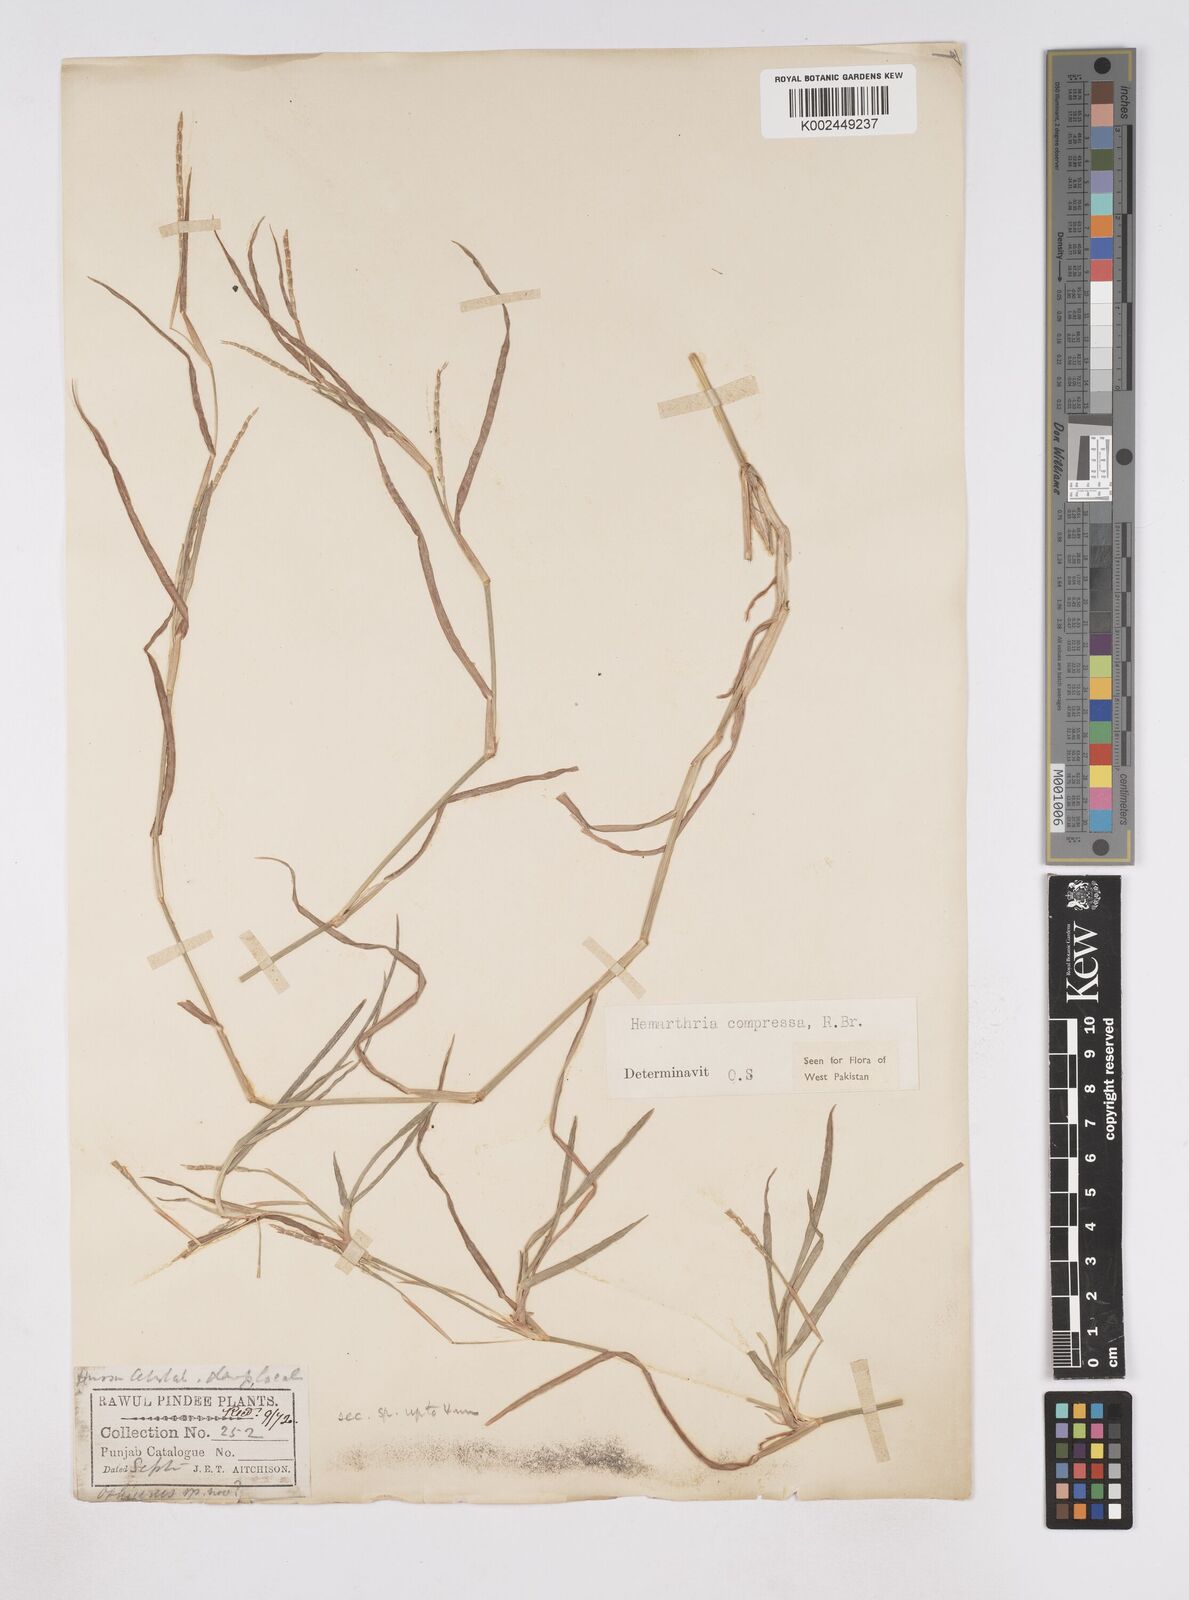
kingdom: Plantae
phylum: Tracheophyta
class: Liliopsida
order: Poales
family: Poaceae
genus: Hemarthria
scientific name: Hemarthria compressa
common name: Whip grass
